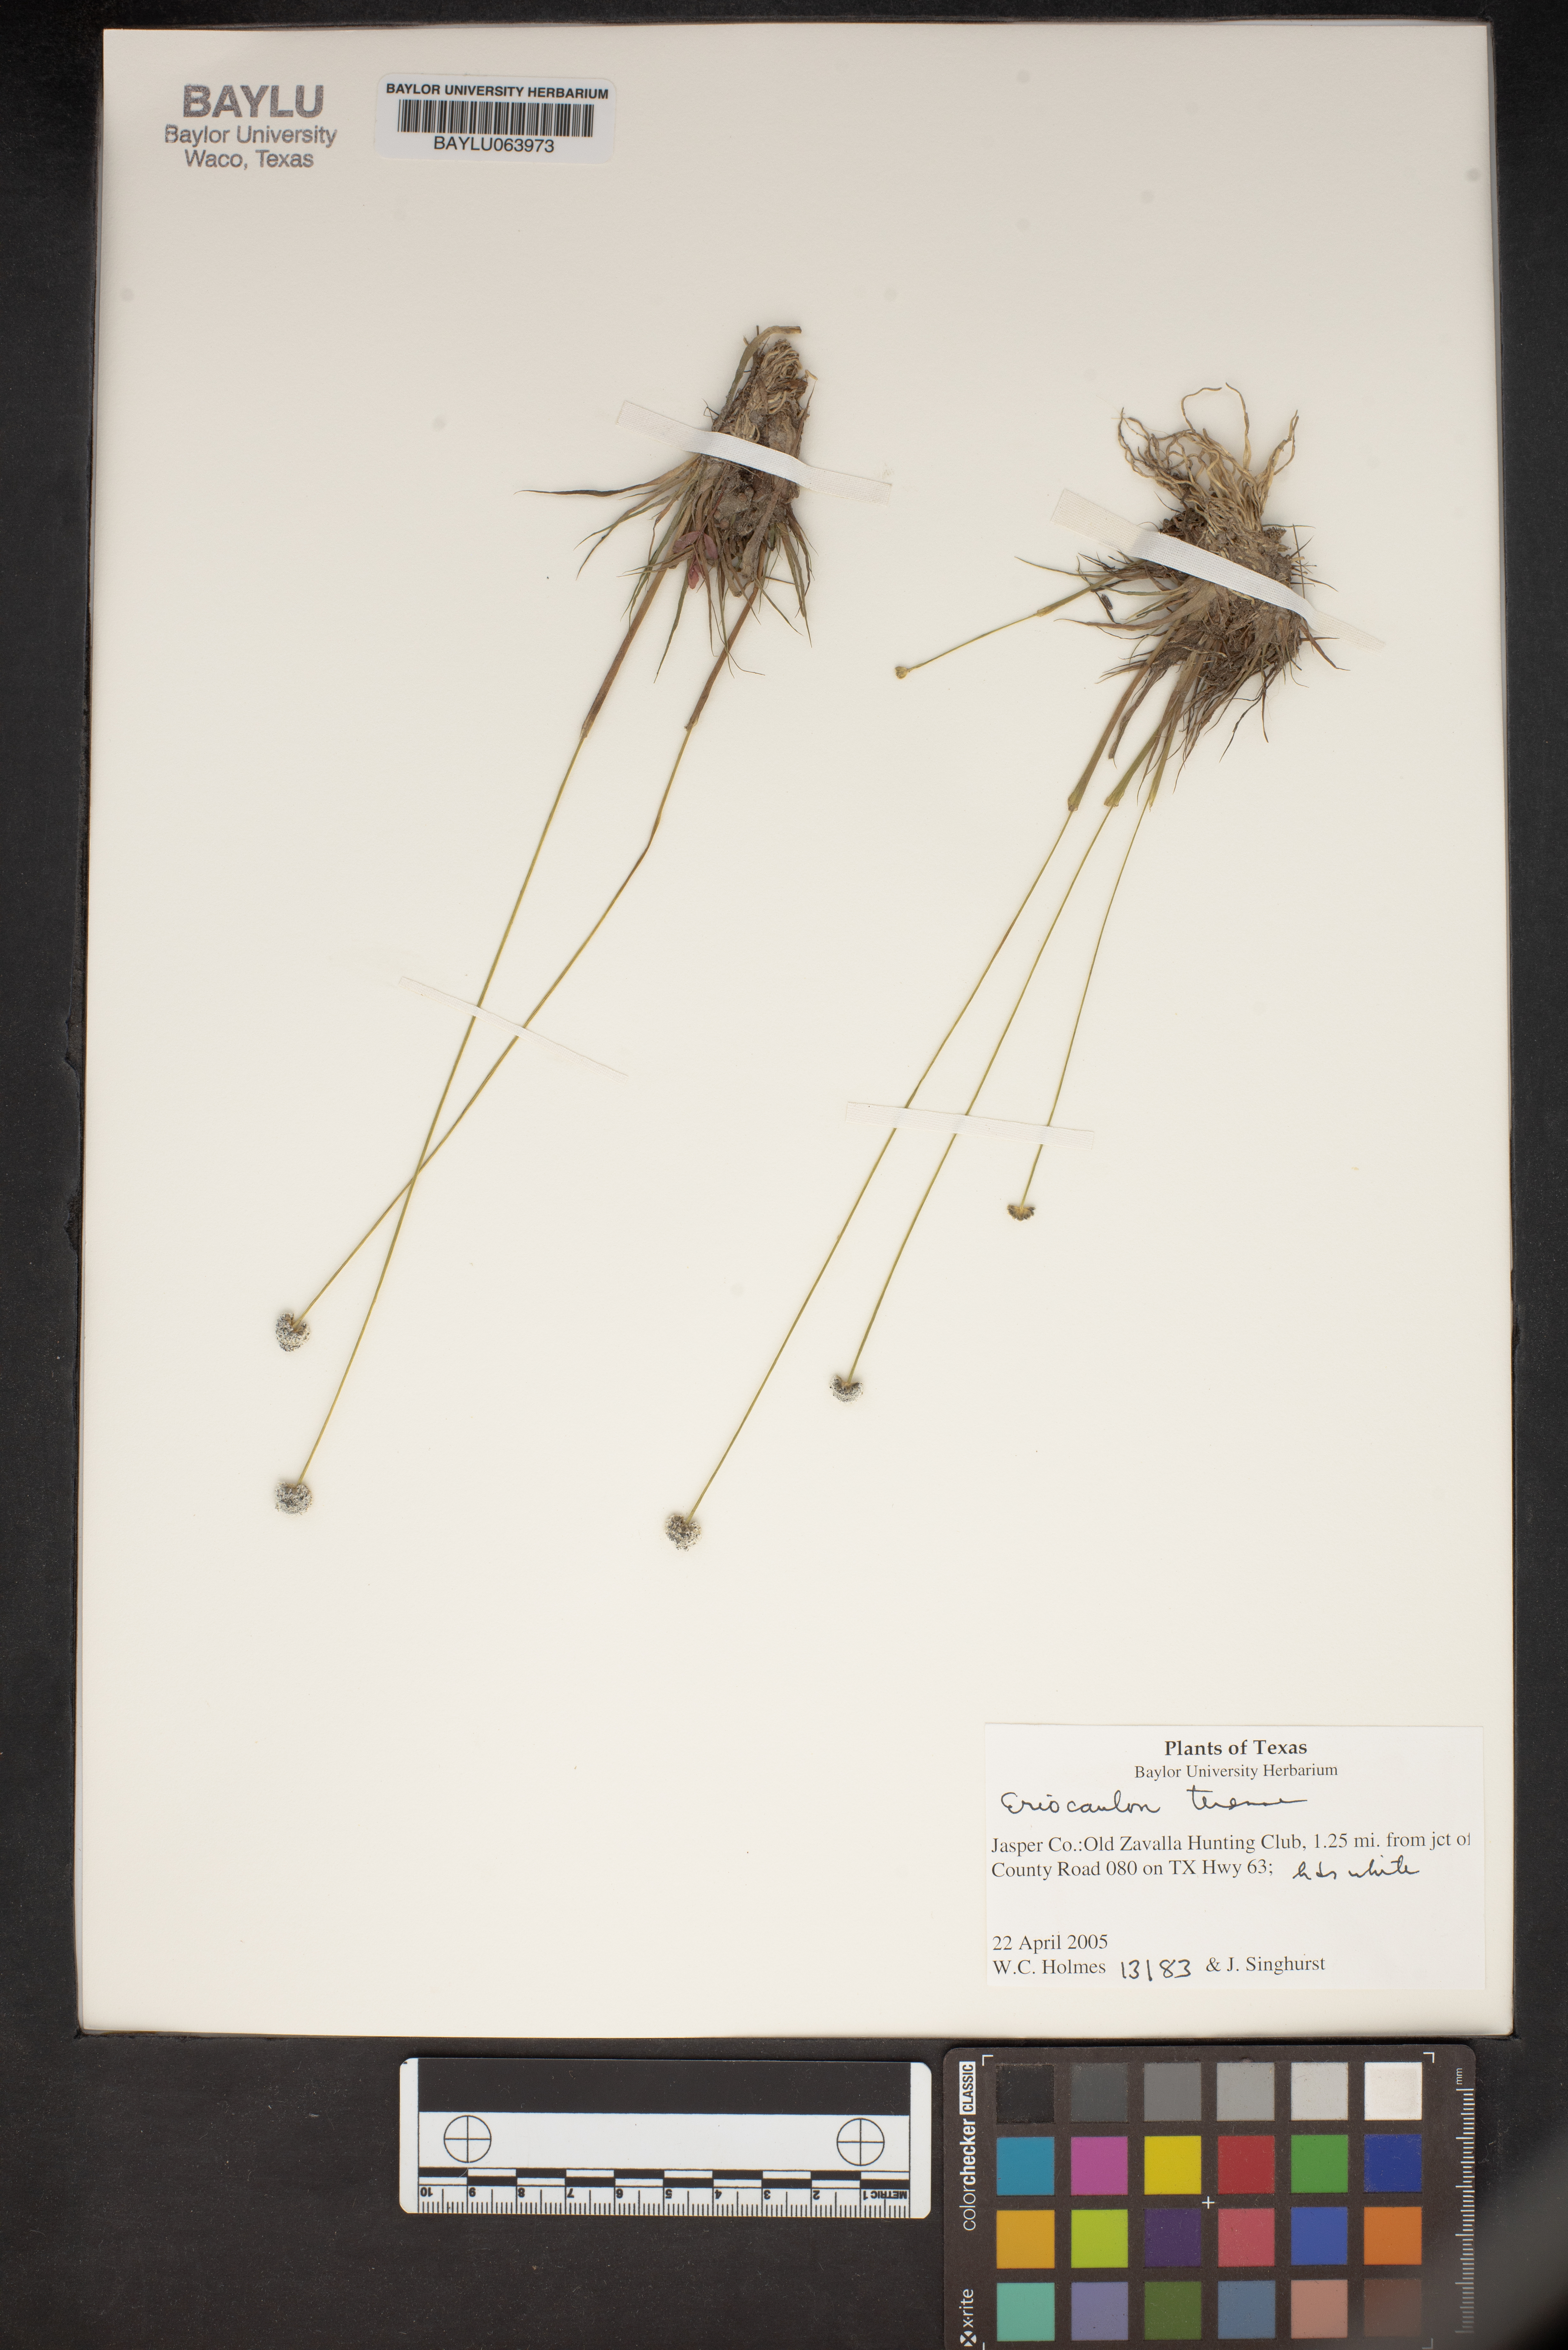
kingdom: Plantae
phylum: Tracheophyta
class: Liliopsida
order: Poales
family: Eriocaulaceae
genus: Eriocaulon
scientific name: Eriocaulon texense
